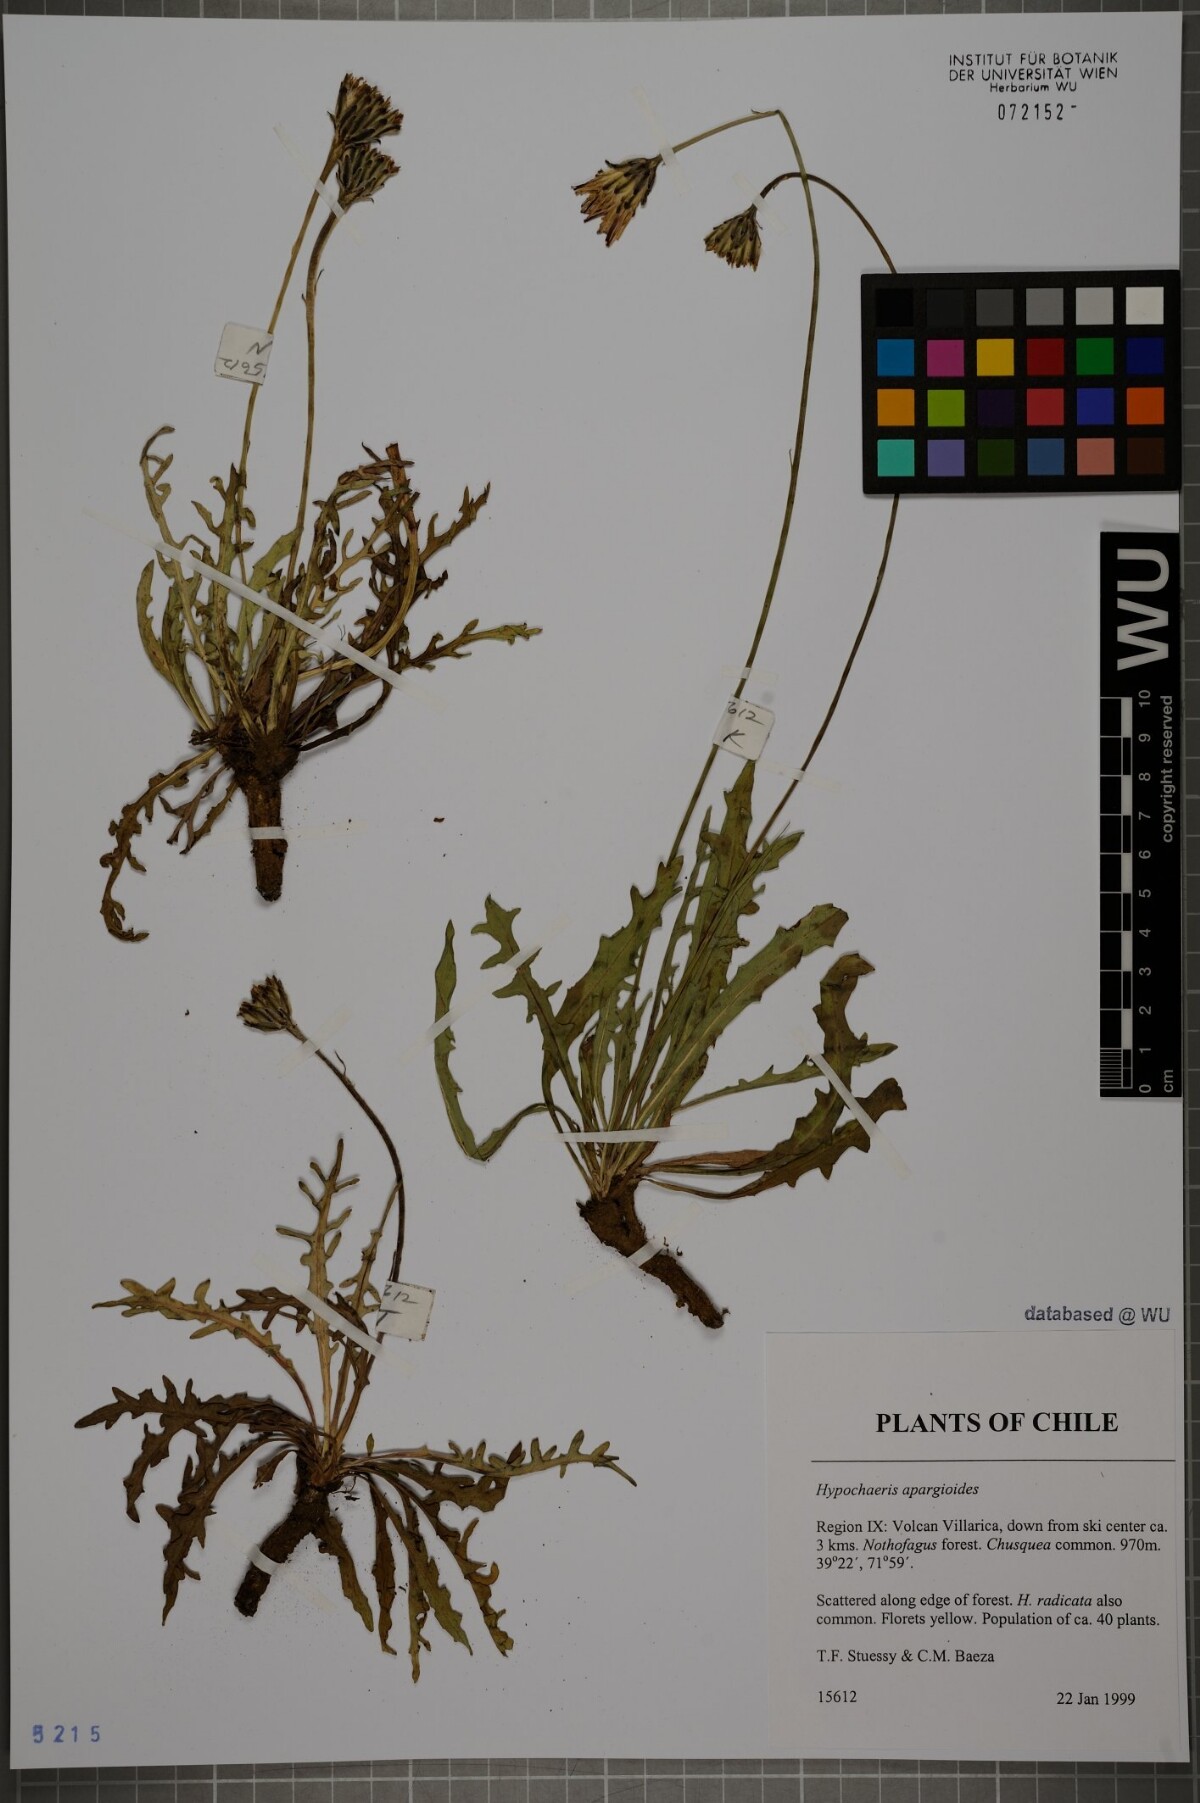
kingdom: Plantae
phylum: Tracheophyta
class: Magnoliopsida
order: Asterales
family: Asteraceae
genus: Hypochaeris
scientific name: Hypochaeris apargioides
